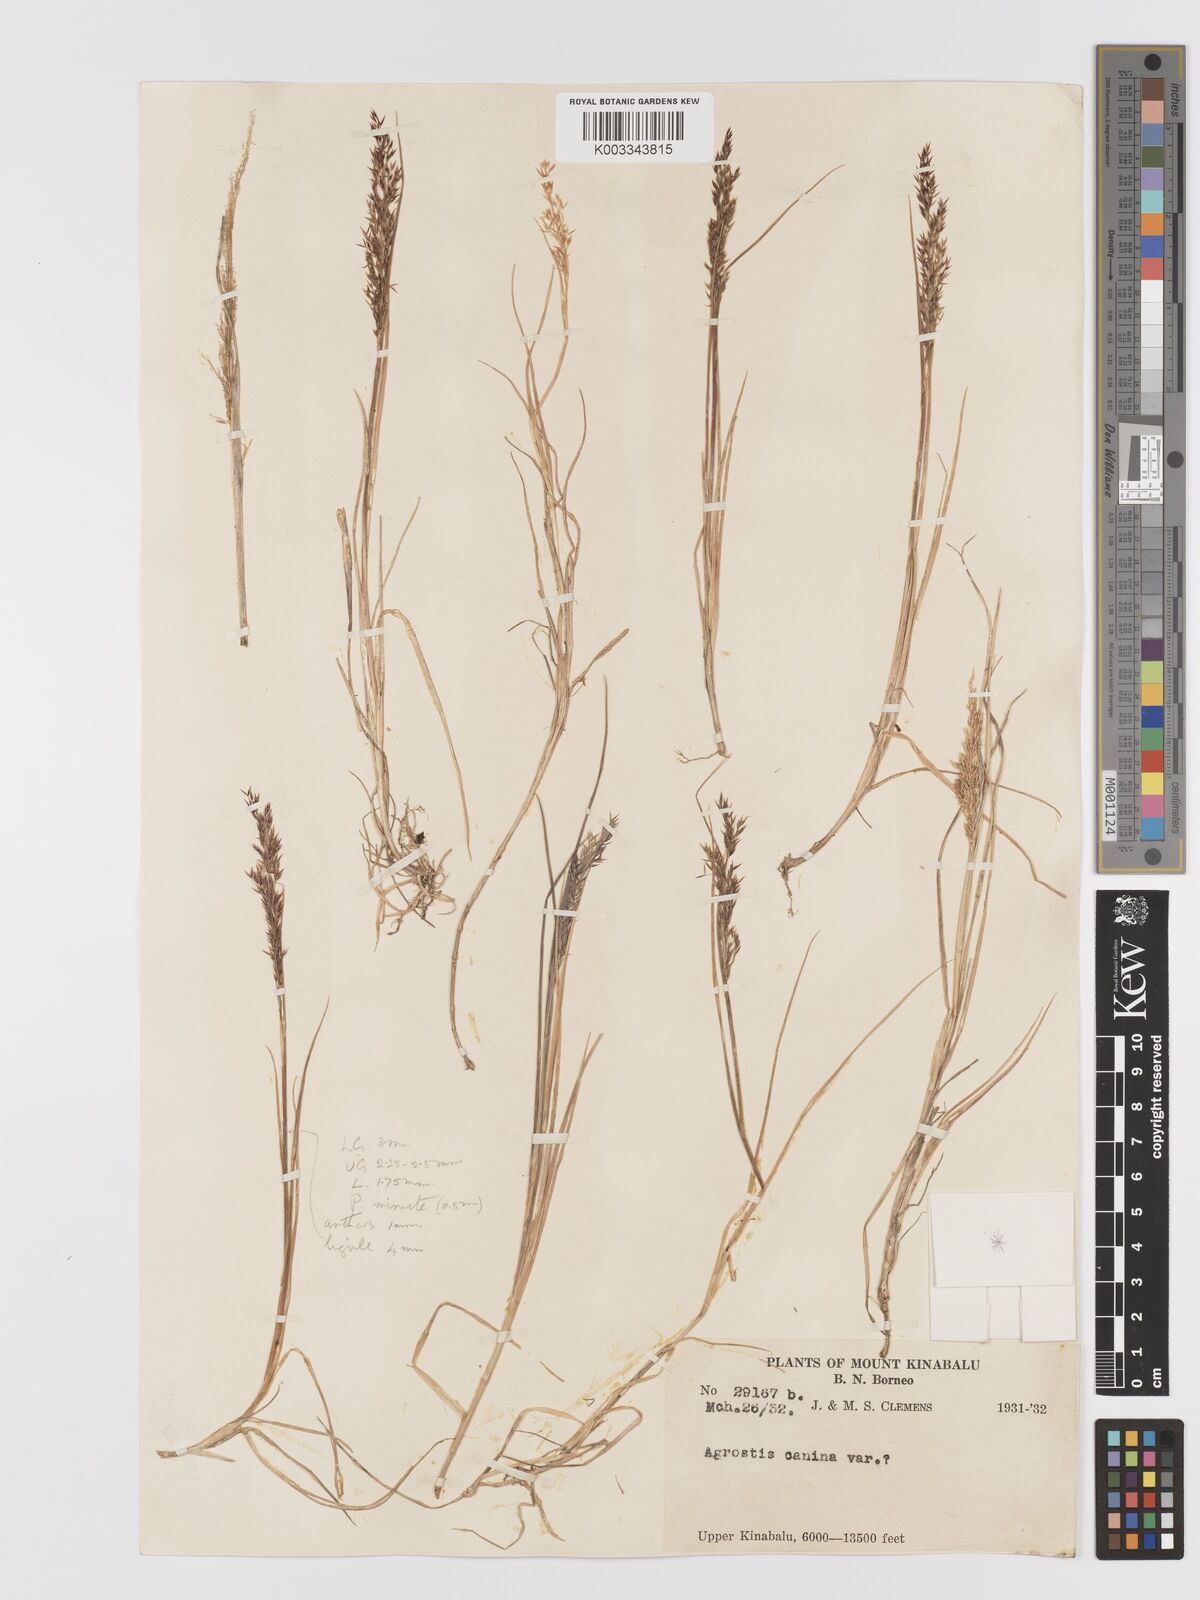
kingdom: Plantae
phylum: Tracheophyta
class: Liliopsida
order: Poales
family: Poaceae
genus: Agrostis
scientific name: Agrostis infirma
